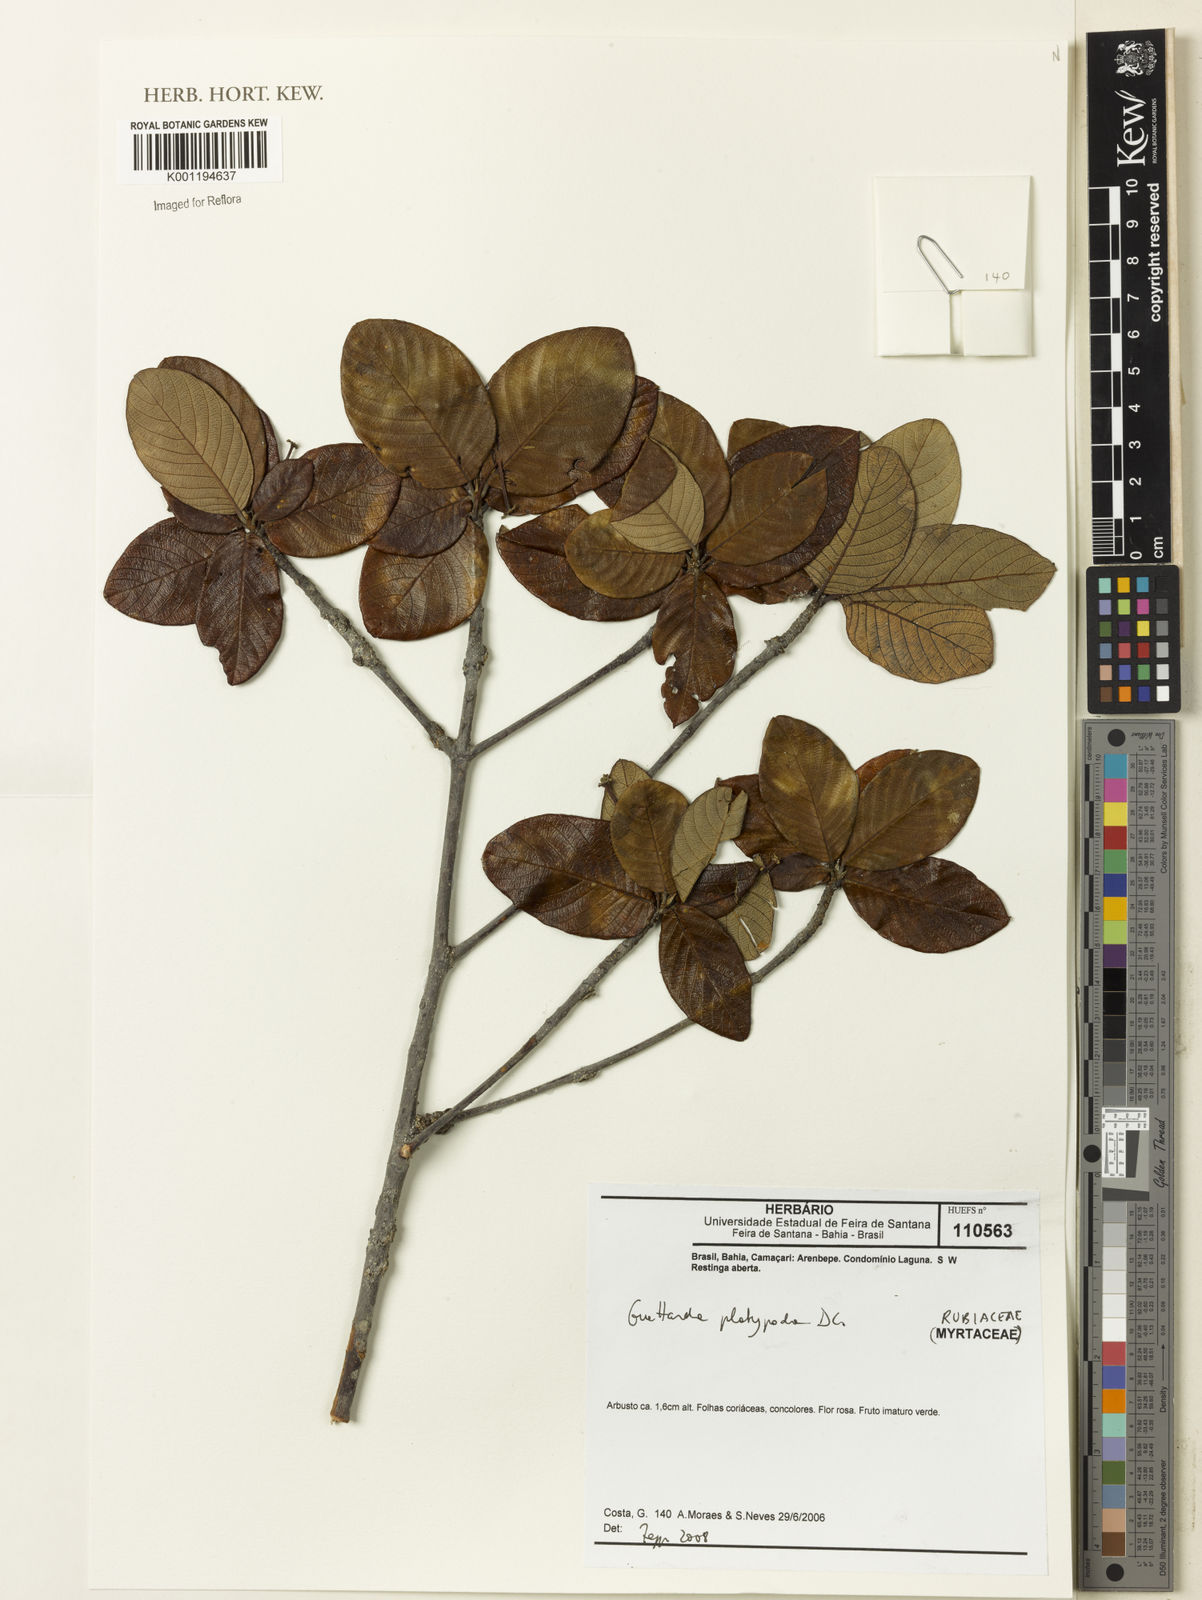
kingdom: Plantae
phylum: Tracheophyta
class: Magnoliopsida
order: Gentianales
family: Rubiaceae
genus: Guettarda
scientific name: Guettarda platypoda
